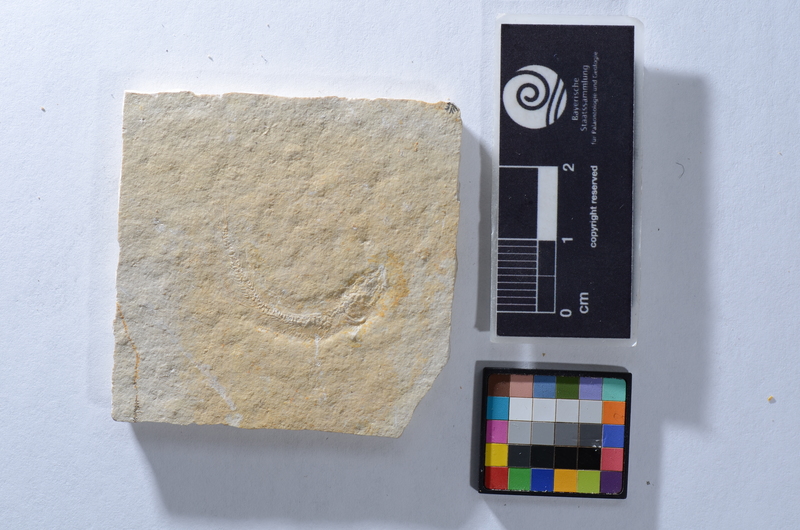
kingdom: Animalia
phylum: Chordata
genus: Thrissops
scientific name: Thrissops cephalus
